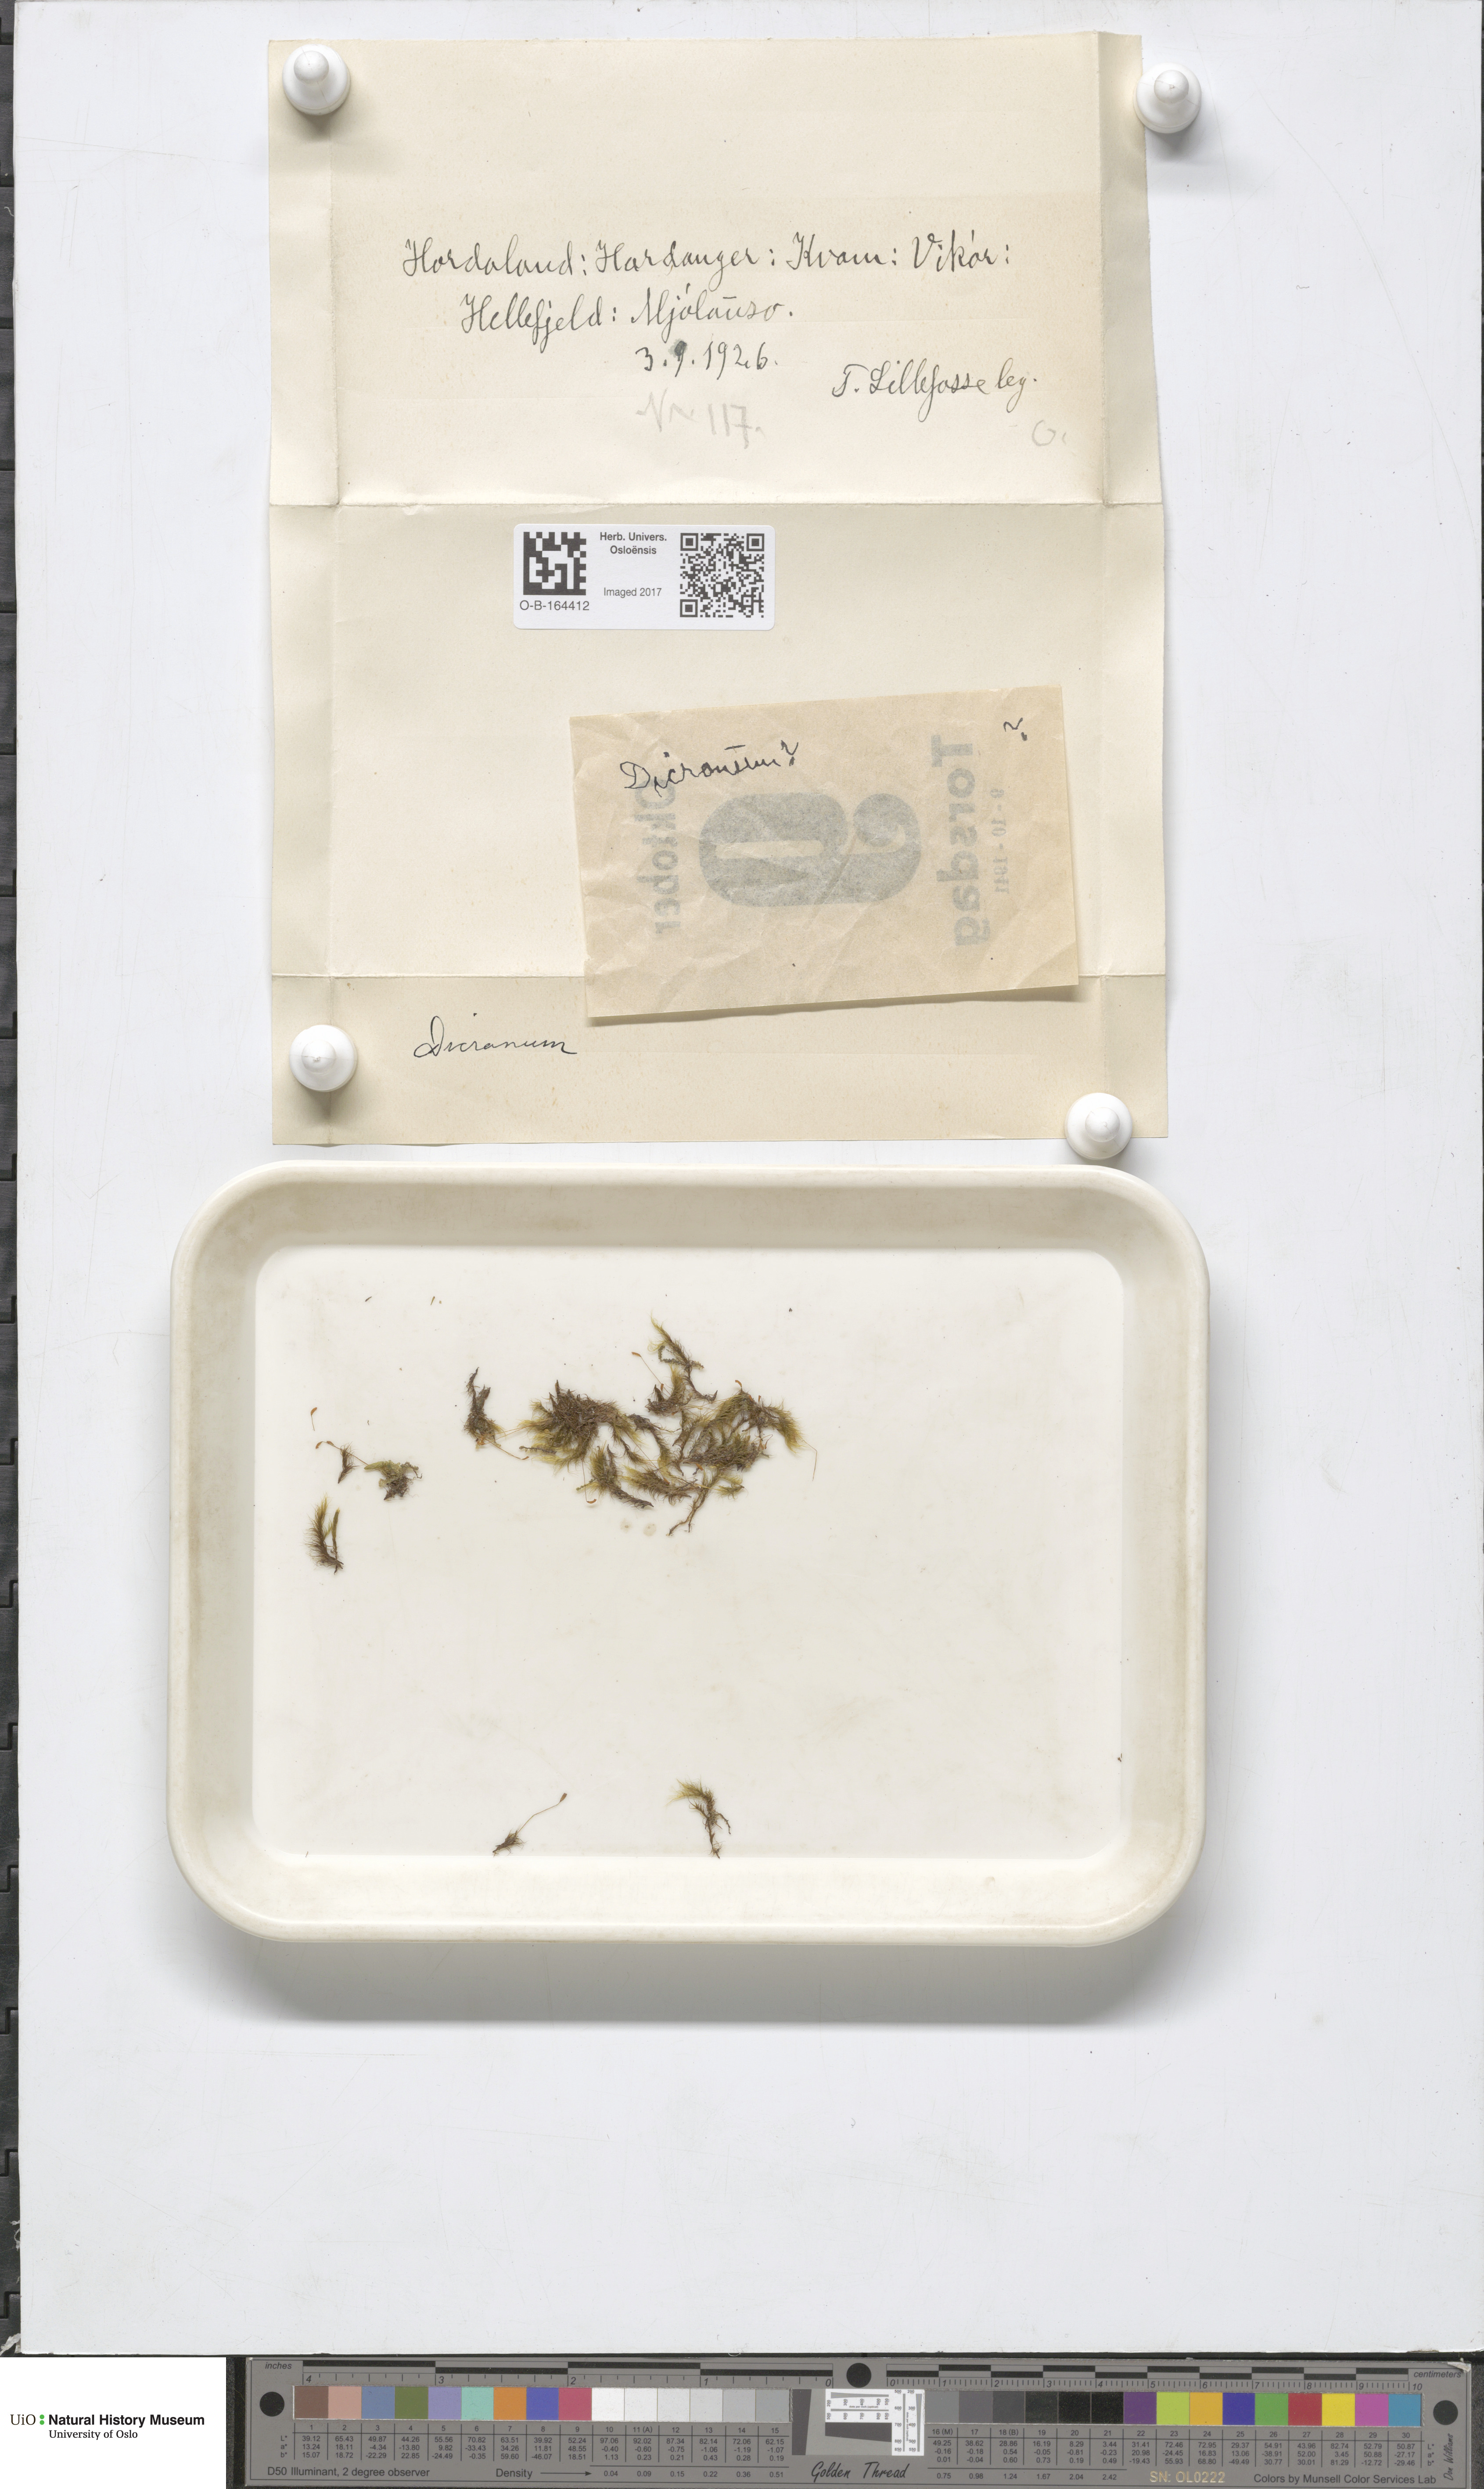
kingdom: Plantae
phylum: Bryophyta
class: Bryopsida
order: Dicranales
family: Dicranaceae
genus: Dicranum
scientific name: Dicranum
